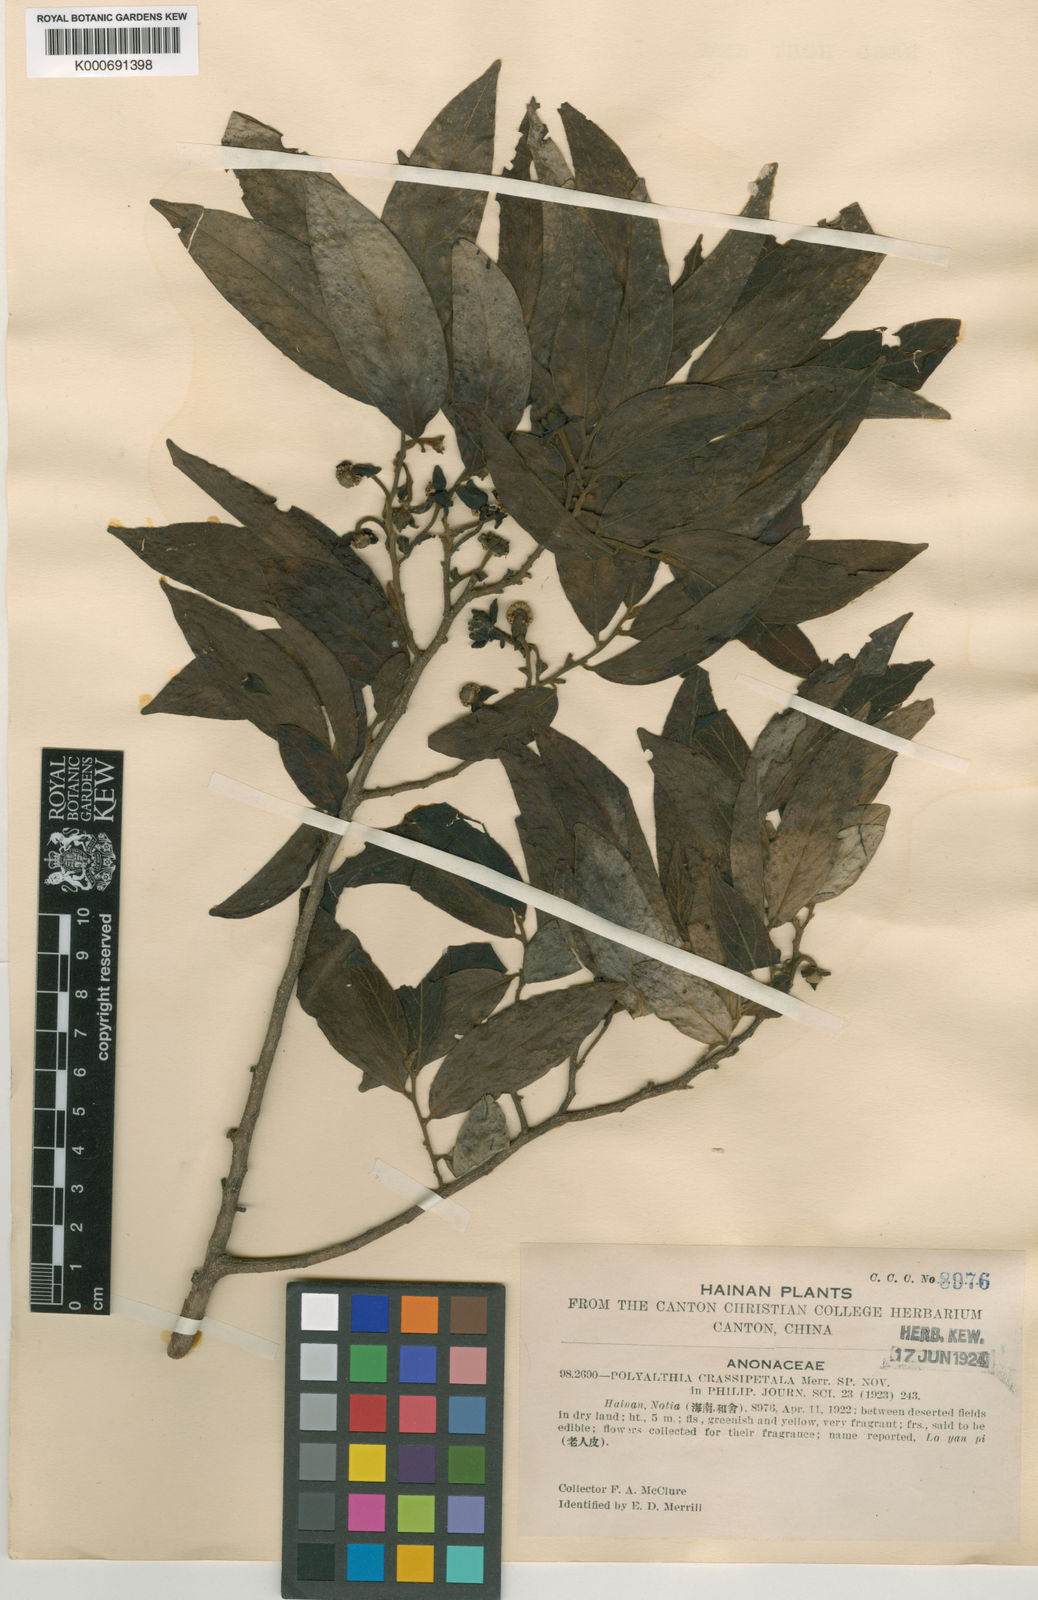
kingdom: Plantae
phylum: Tracheophyta
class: Magnoliopsida
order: Magnoliales
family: Annonaceae
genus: Hubera
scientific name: Hubera cerasoides
